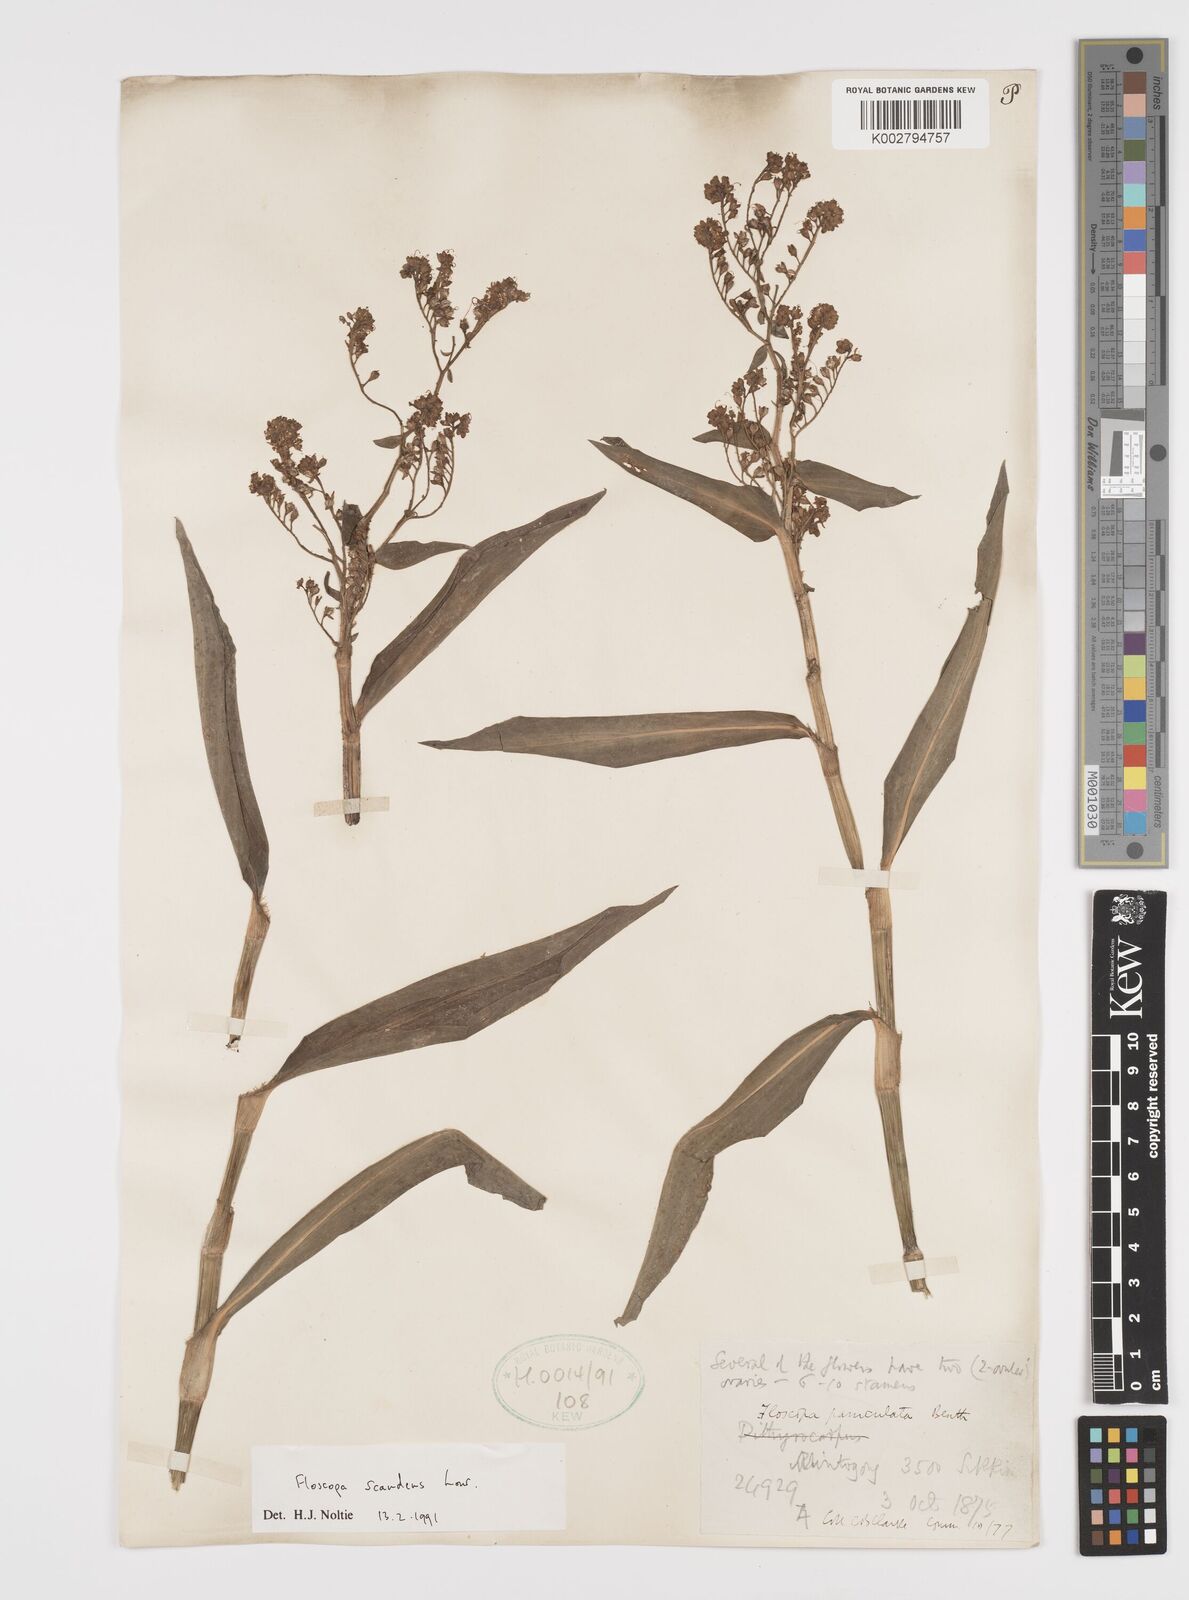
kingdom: Plantae
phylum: Tracheophyta
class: Liliopsida
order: Commelinales
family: Commelinaceae
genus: Floscopa
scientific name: Floscopa scandens
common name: Climbing flower cup
